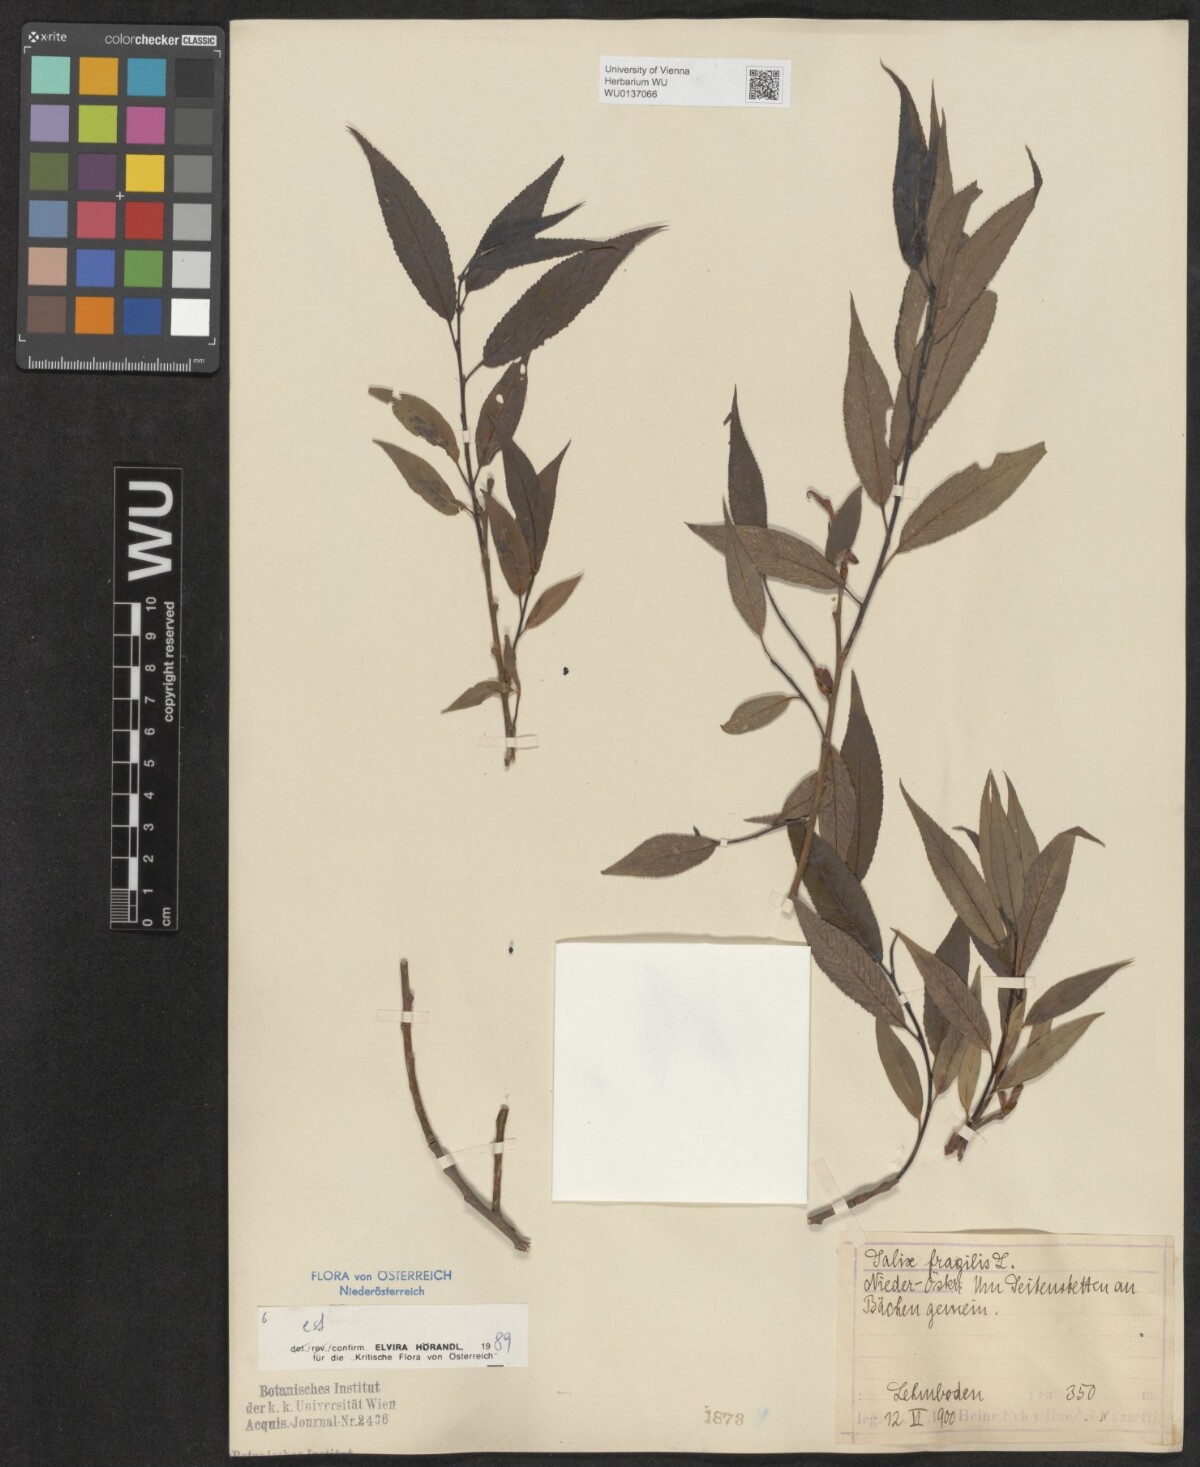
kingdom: Plantae
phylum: Tracheophyta
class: Magnoliopsida
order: Malpighiales
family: Salicaceae
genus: Salix
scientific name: Salix fragilis
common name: Crack willow
